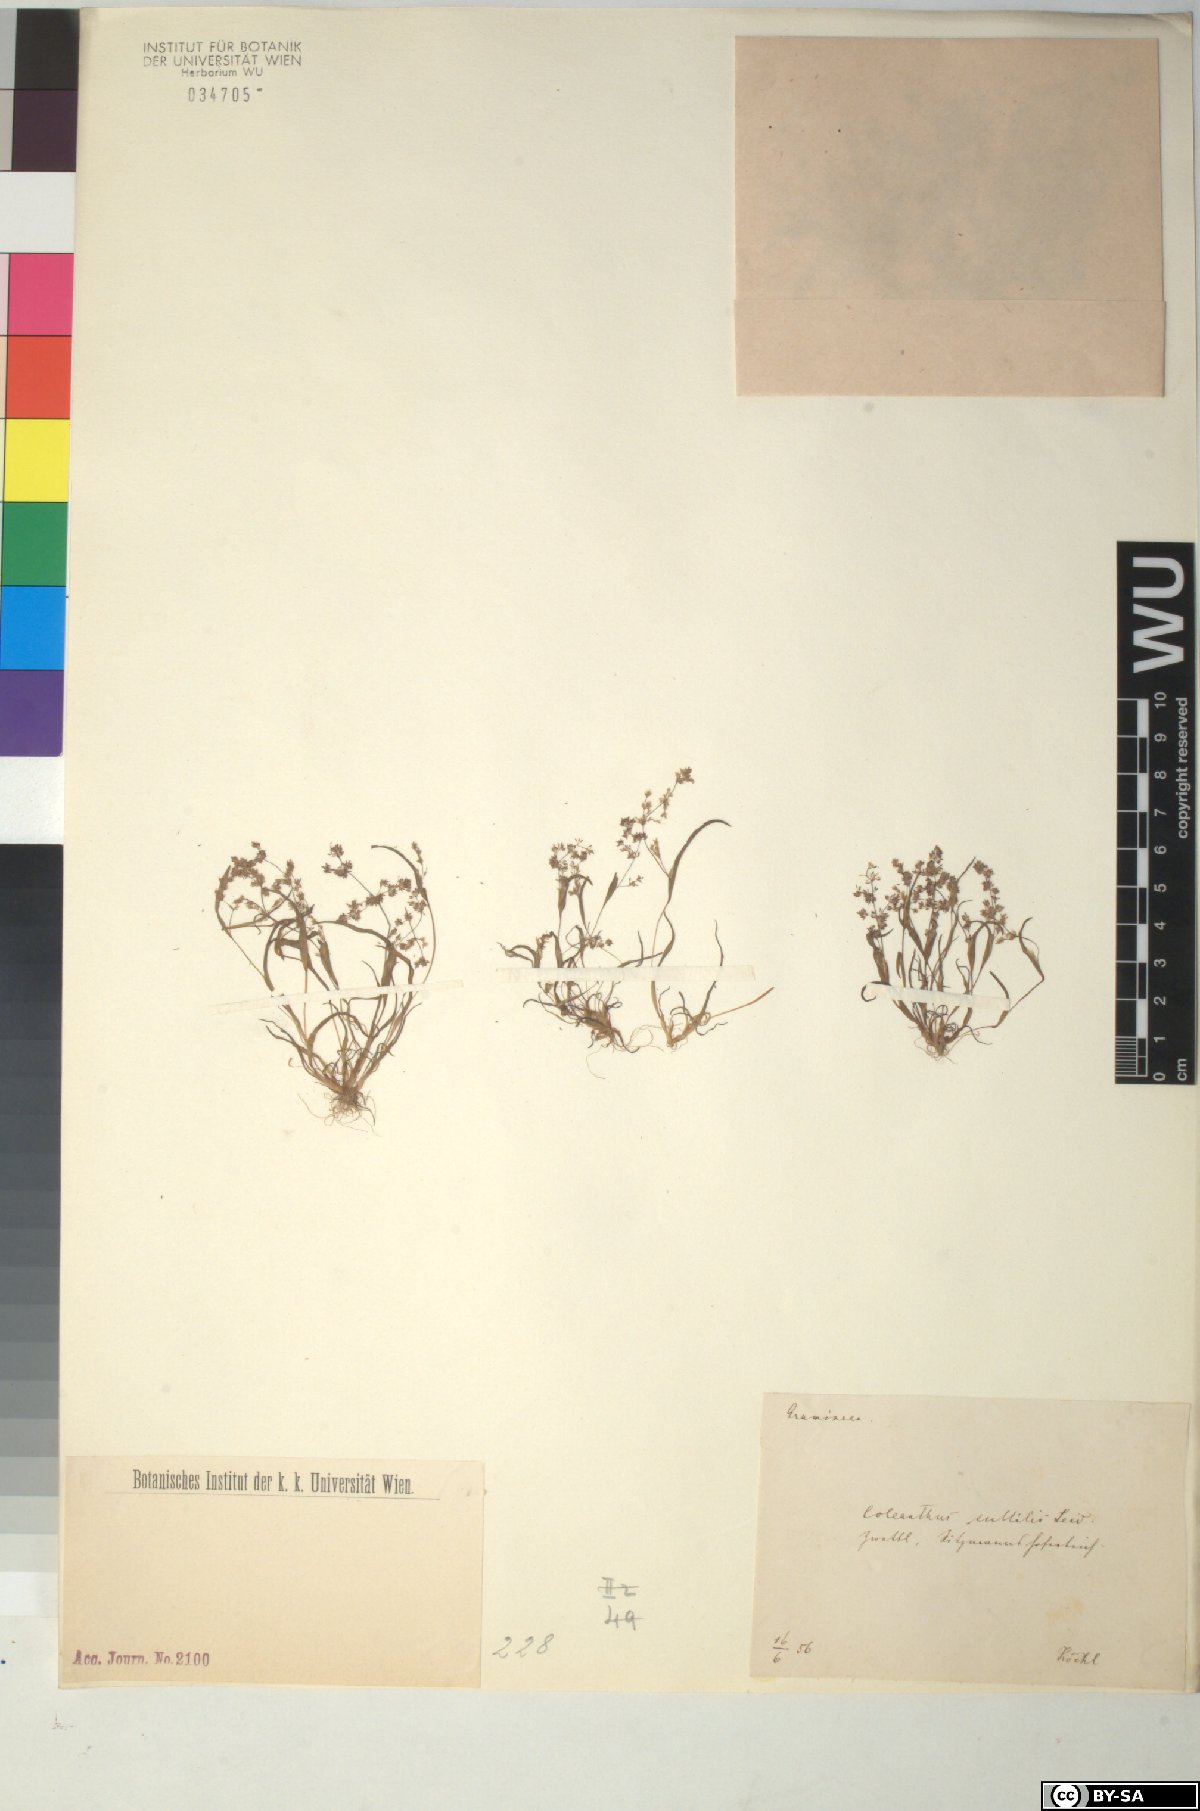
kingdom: Plantae
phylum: Tracheophyta
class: Liliopsida
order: Poales
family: Poaceae
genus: Coleanthus
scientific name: Coleanthus subtilis
